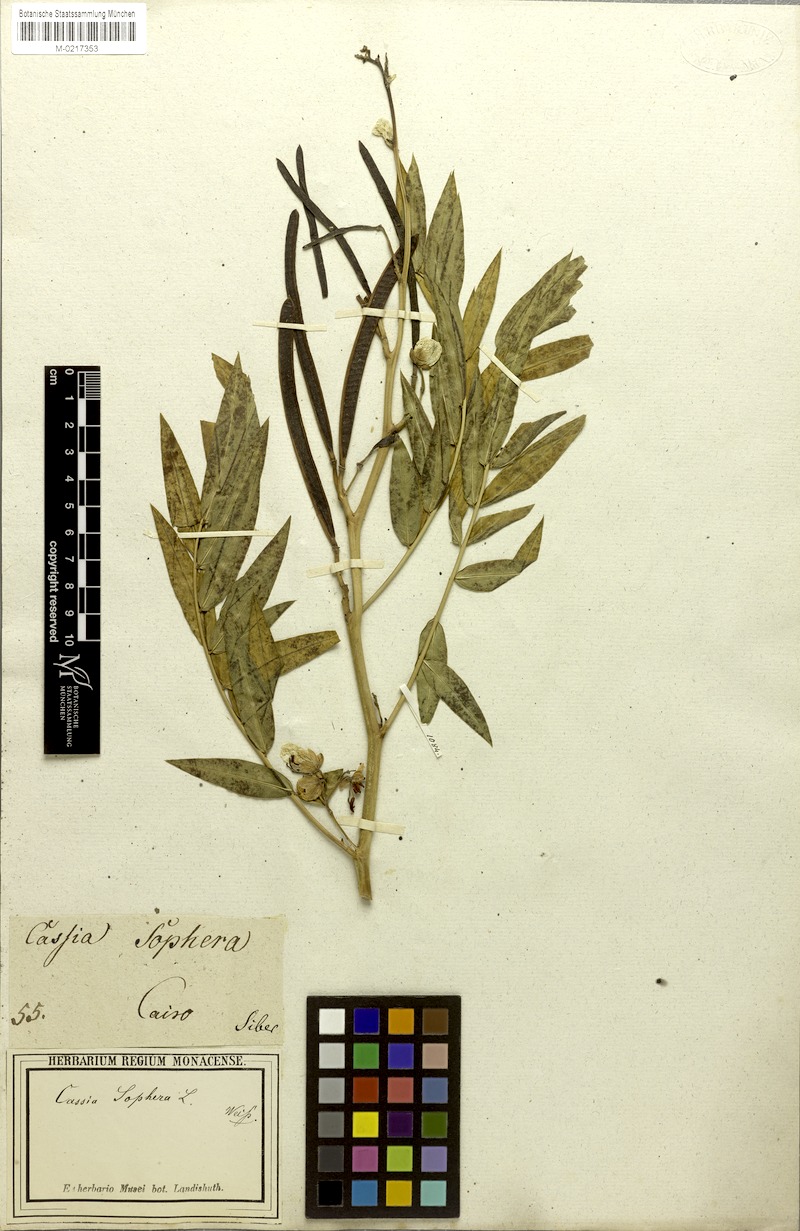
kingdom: Plantae
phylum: Tracheophyta
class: Magnoliopsida
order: Fabales
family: Fabaceae
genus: Senna
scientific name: Senna occidentalis
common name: Septicweed
